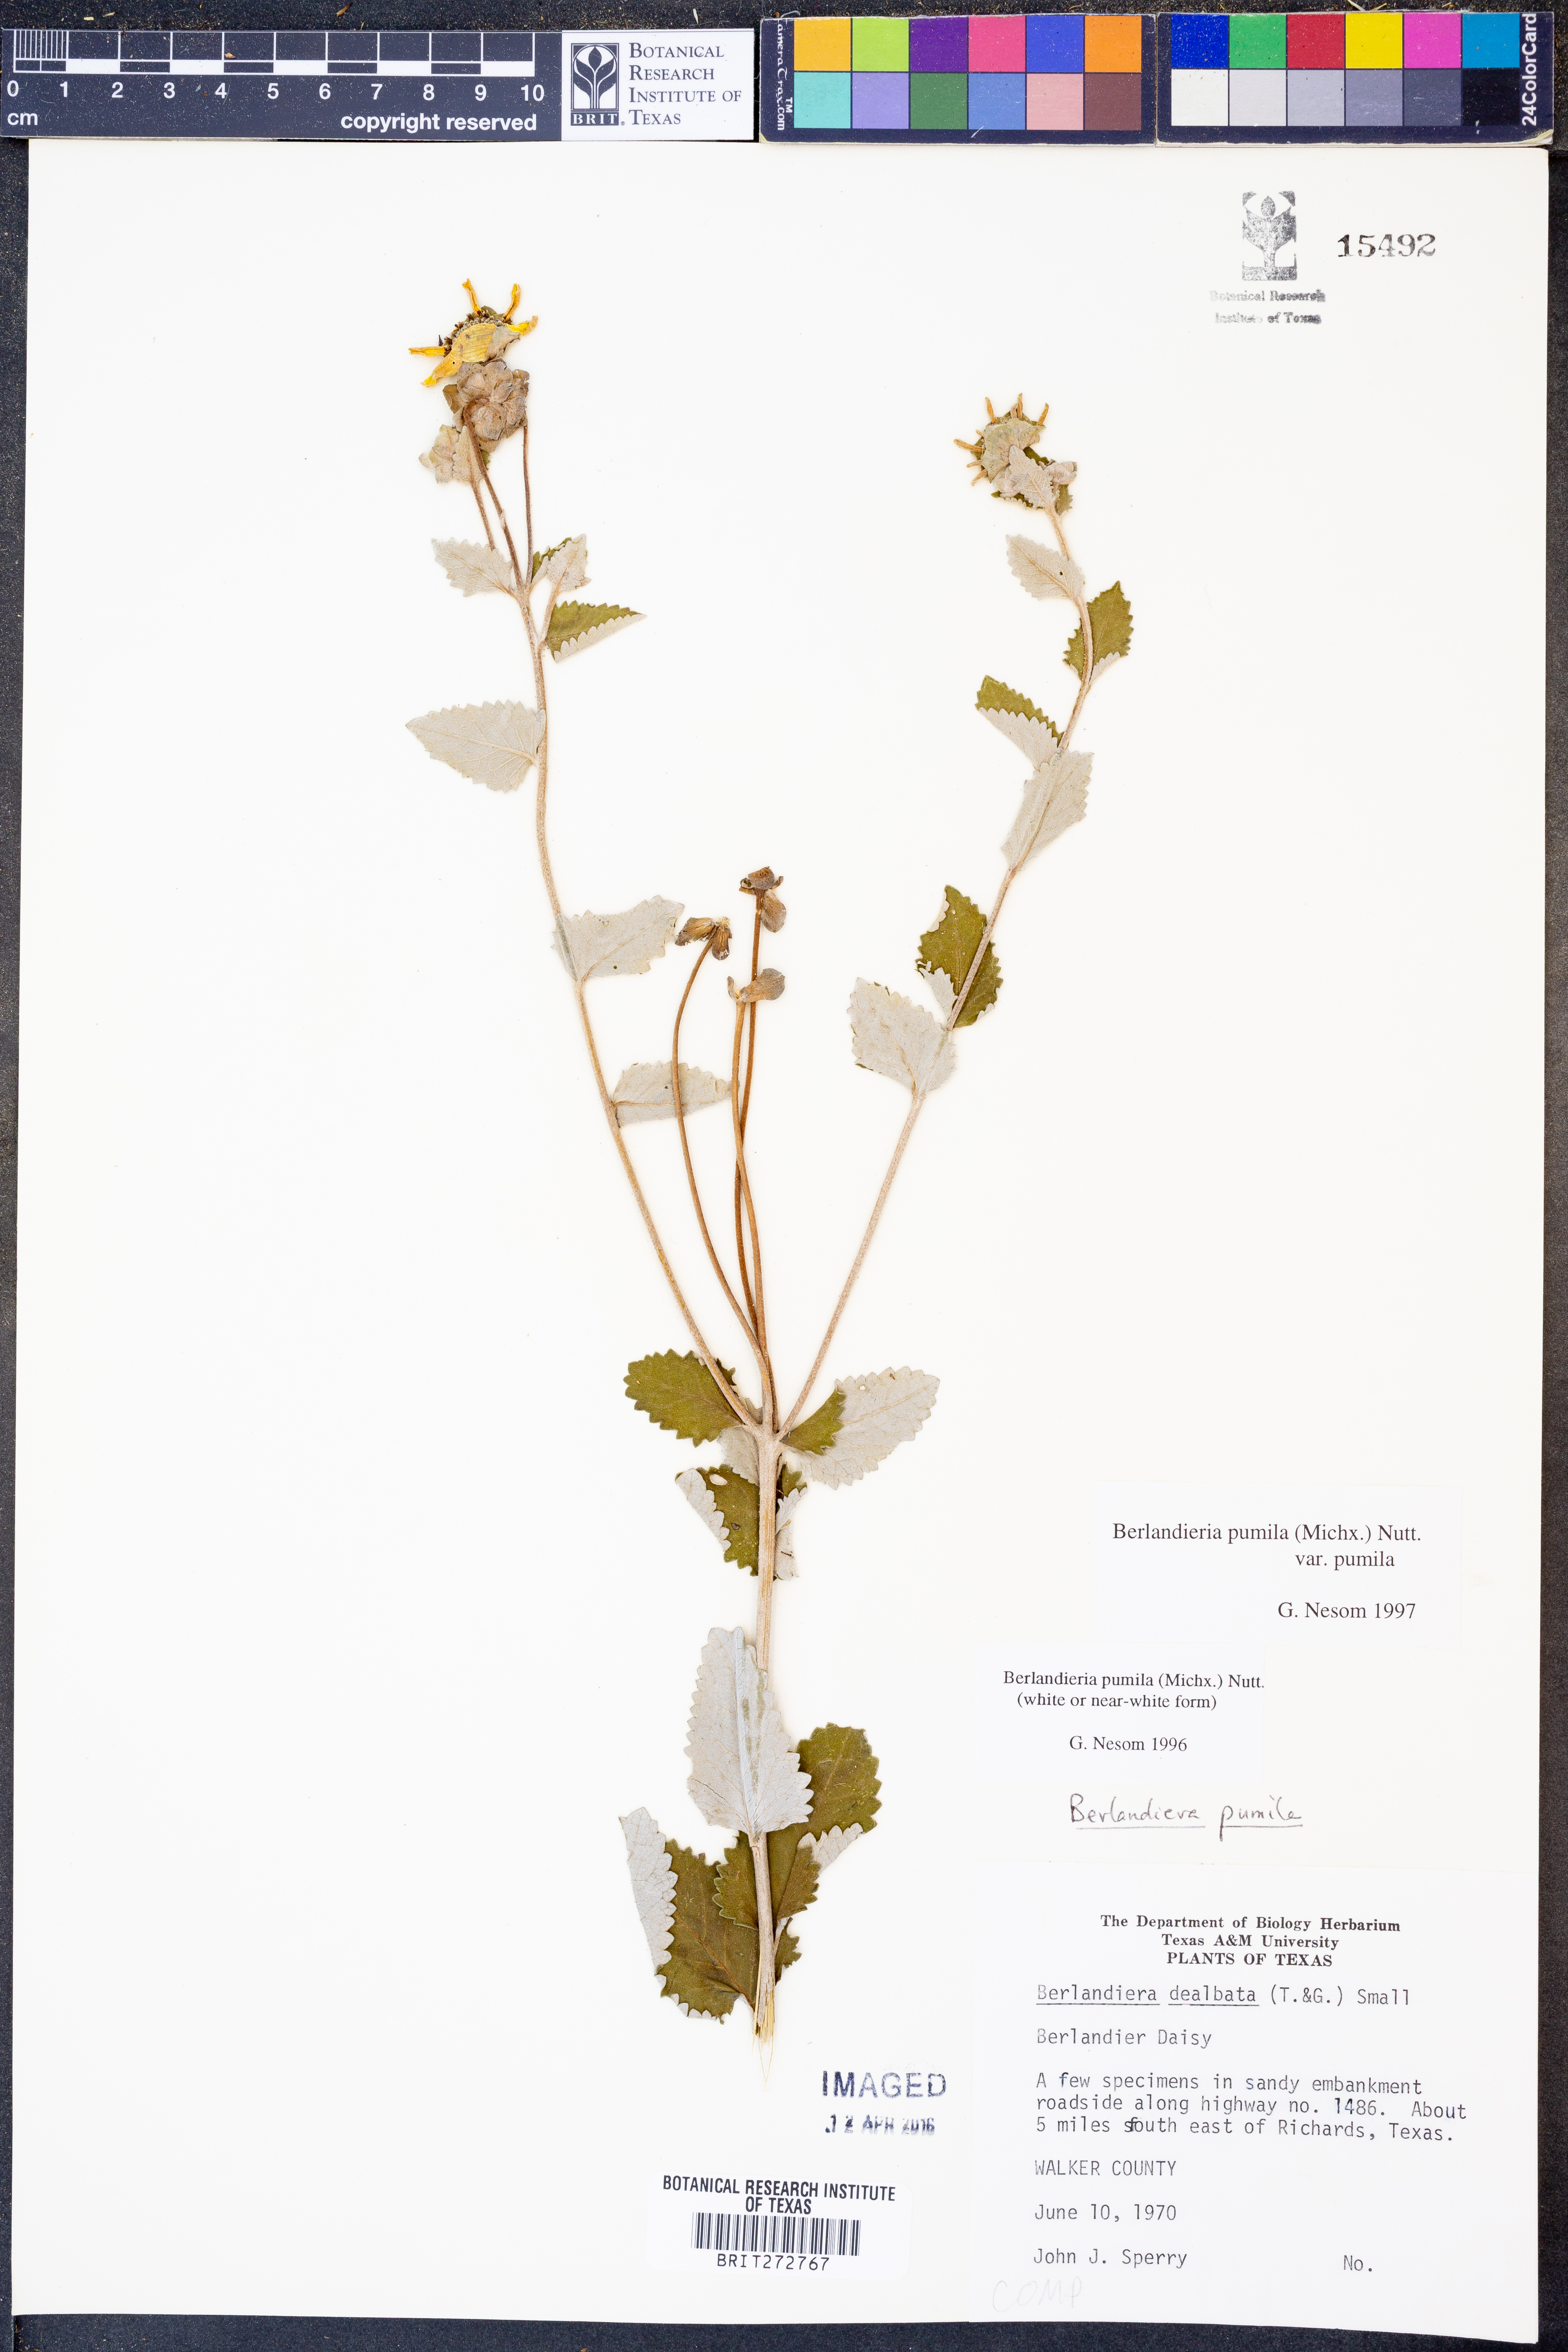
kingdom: Plantae
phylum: Tracheophyta
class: Magnoliopsida
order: Asterales
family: Asteraceae
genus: Berlandiera
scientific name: Berlandiera pumila
